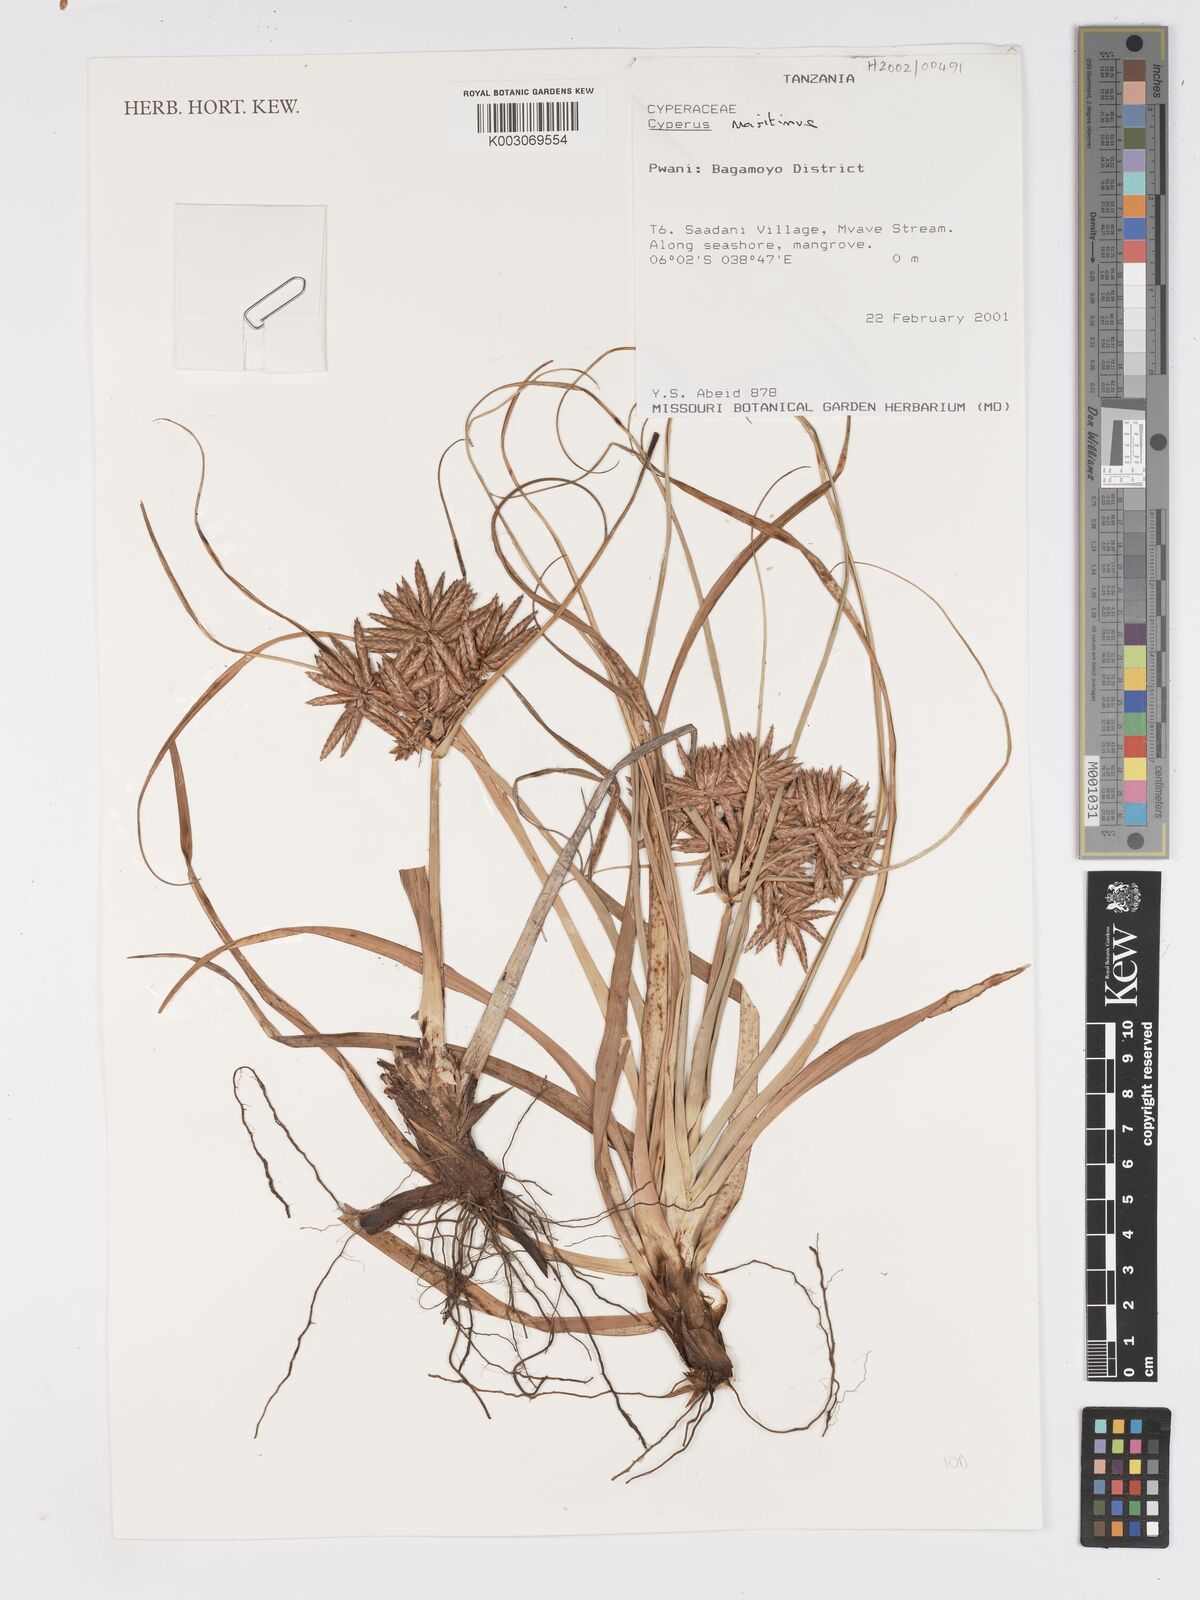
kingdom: Plantae
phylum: Tracheophyta
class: Liliopsida
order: Poales
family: Cyperaceae
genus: Cyperus
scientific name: Cyperus crassipes
